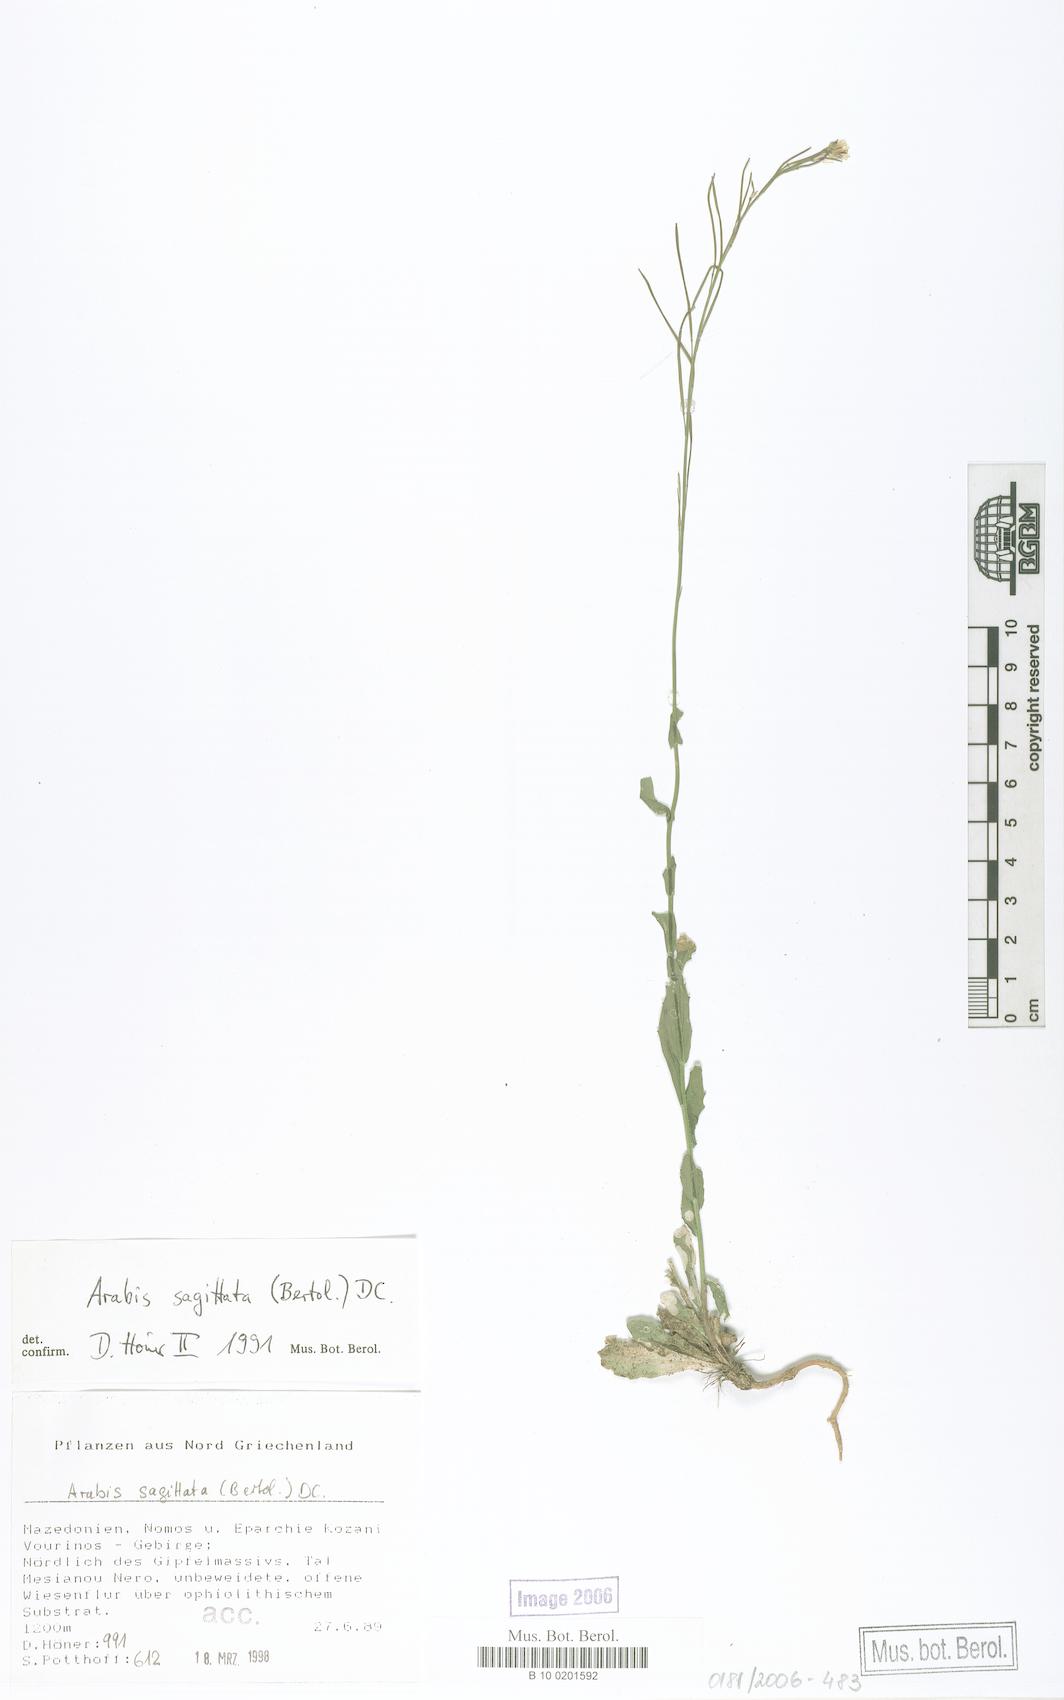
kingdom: Plantae
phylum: Tracheophyta
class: Magnoliopsida
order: Brassicales
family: Brassicaceae
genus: Arabis
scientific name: Arabis sagittata
